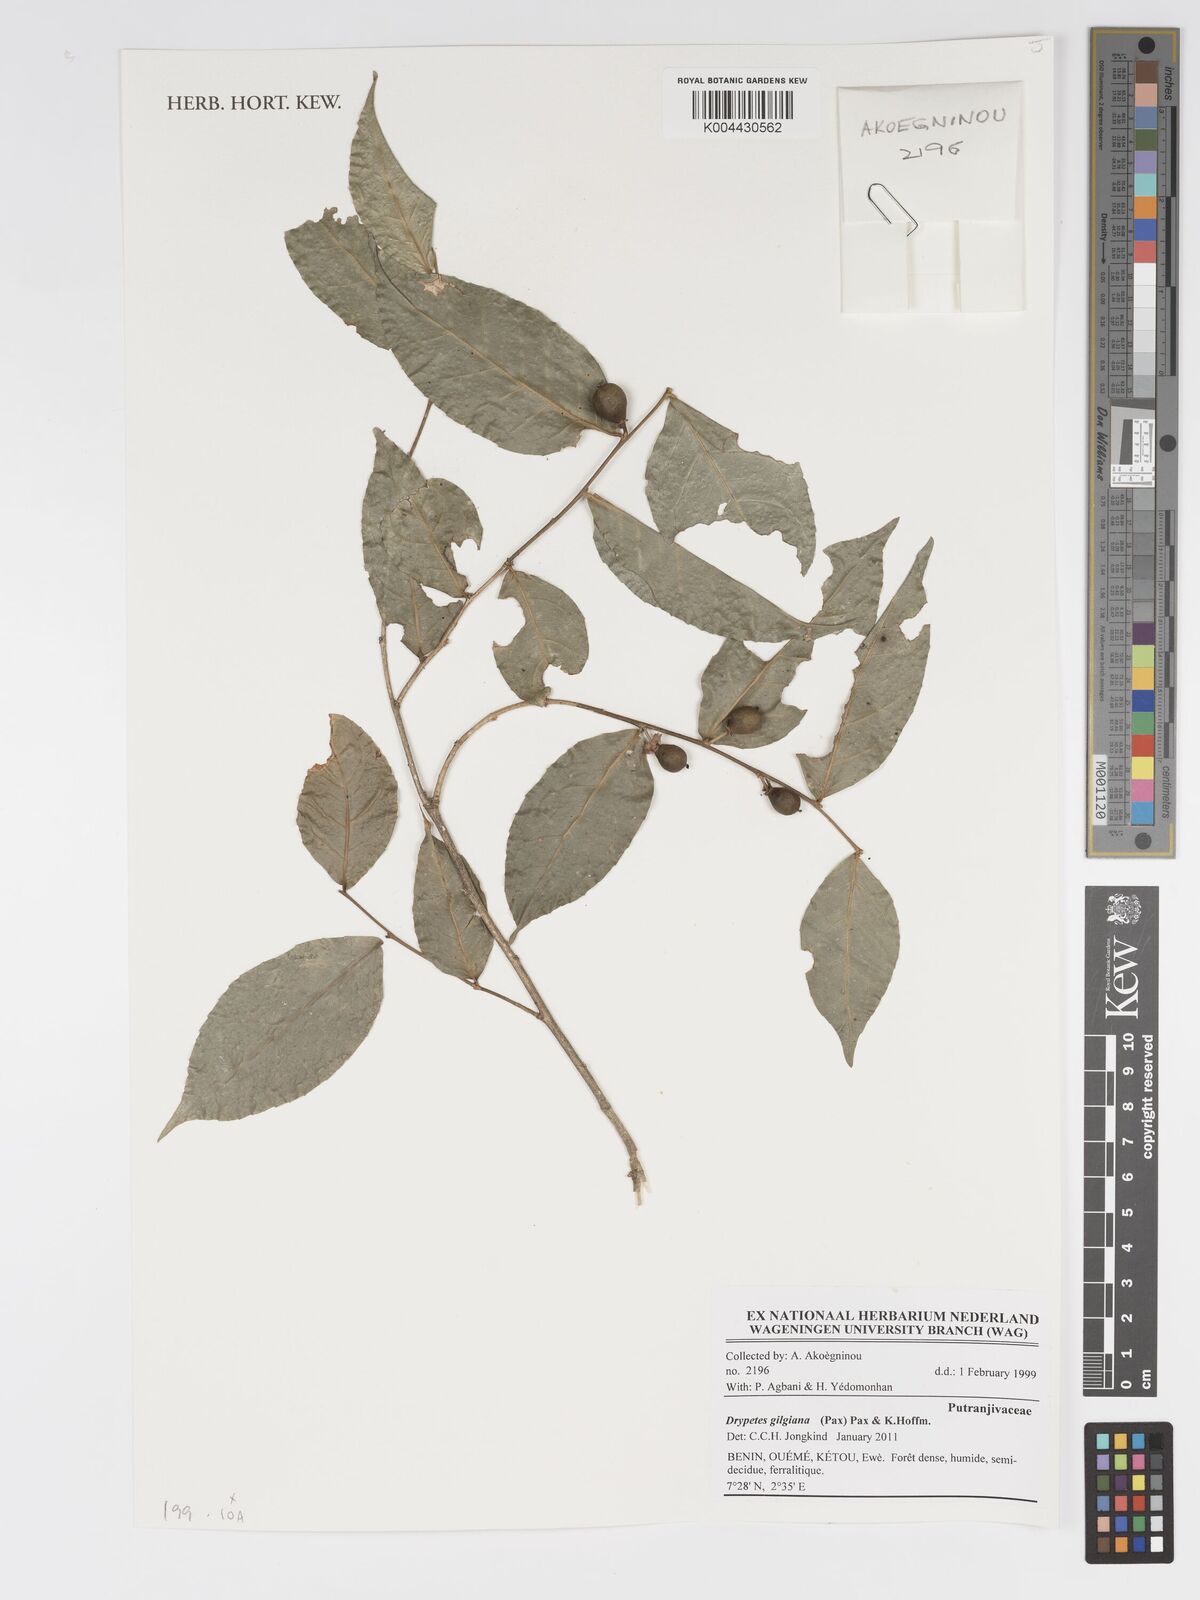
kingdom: Plantae
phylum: Tracheophyta
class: Magnoliopsida
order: Malpighiales
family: Putranjivaceae
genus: Drypetes
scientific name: Drypetes gilgiana
